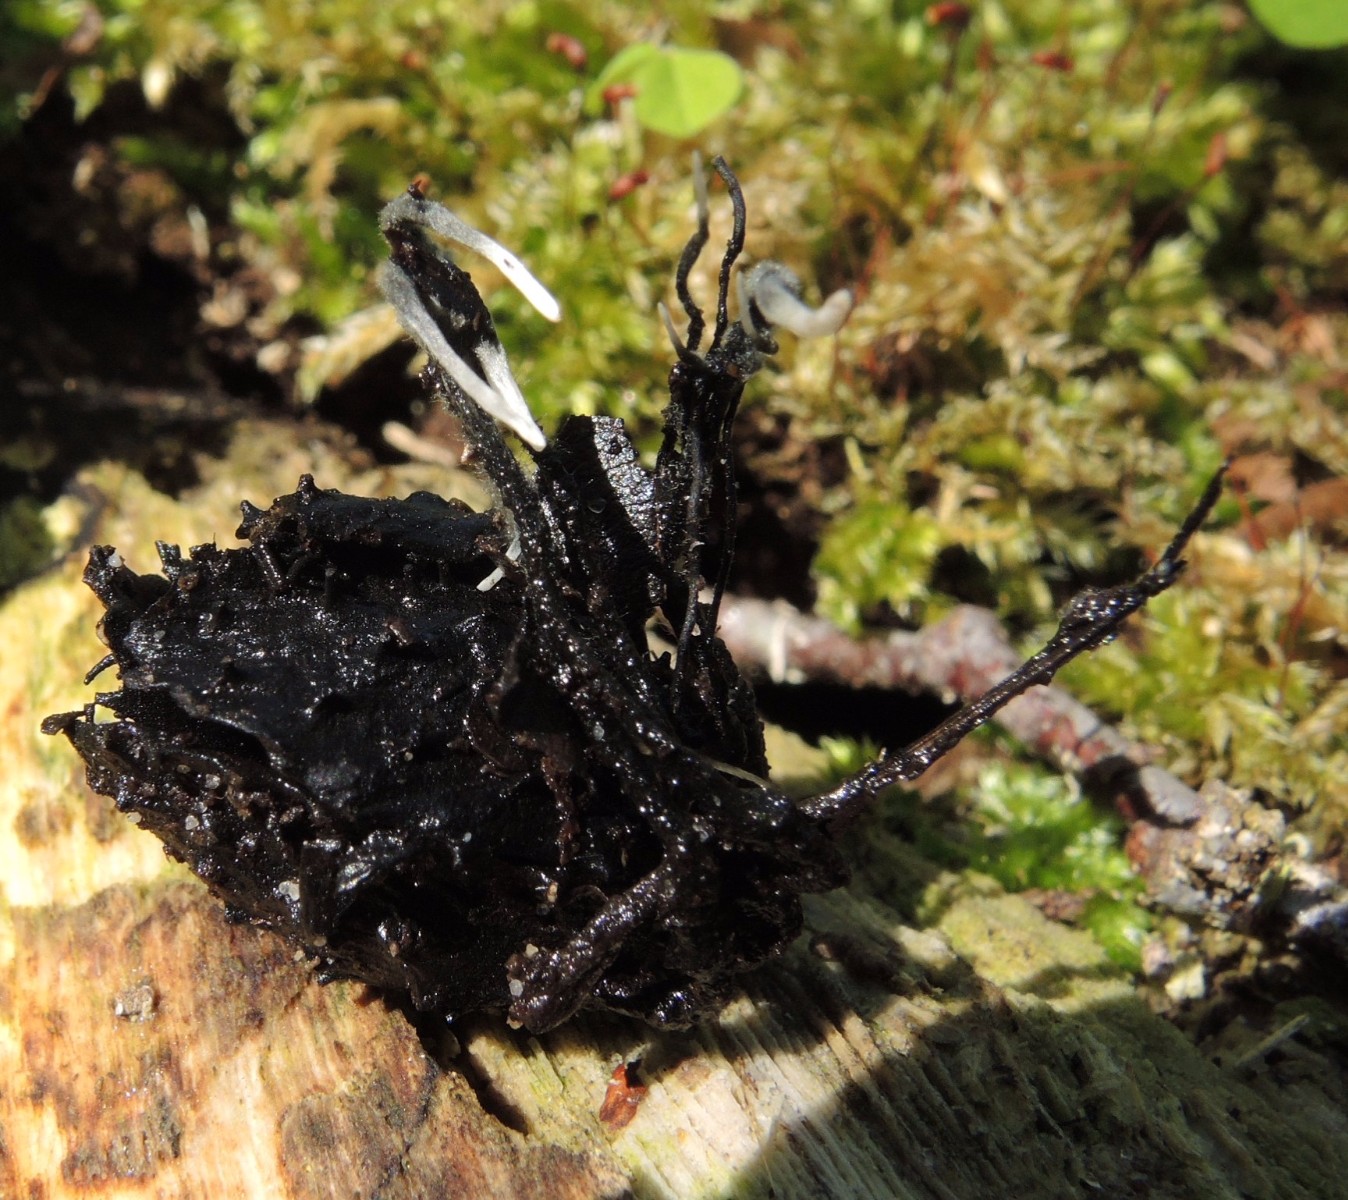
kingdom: Fungi
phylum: Ascomycota
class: Sordariomycetes
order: Xylariales
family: Xylariaceae
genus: Xylaria
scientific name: Xylaria carpophila
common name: bogskål-stødsvamp
